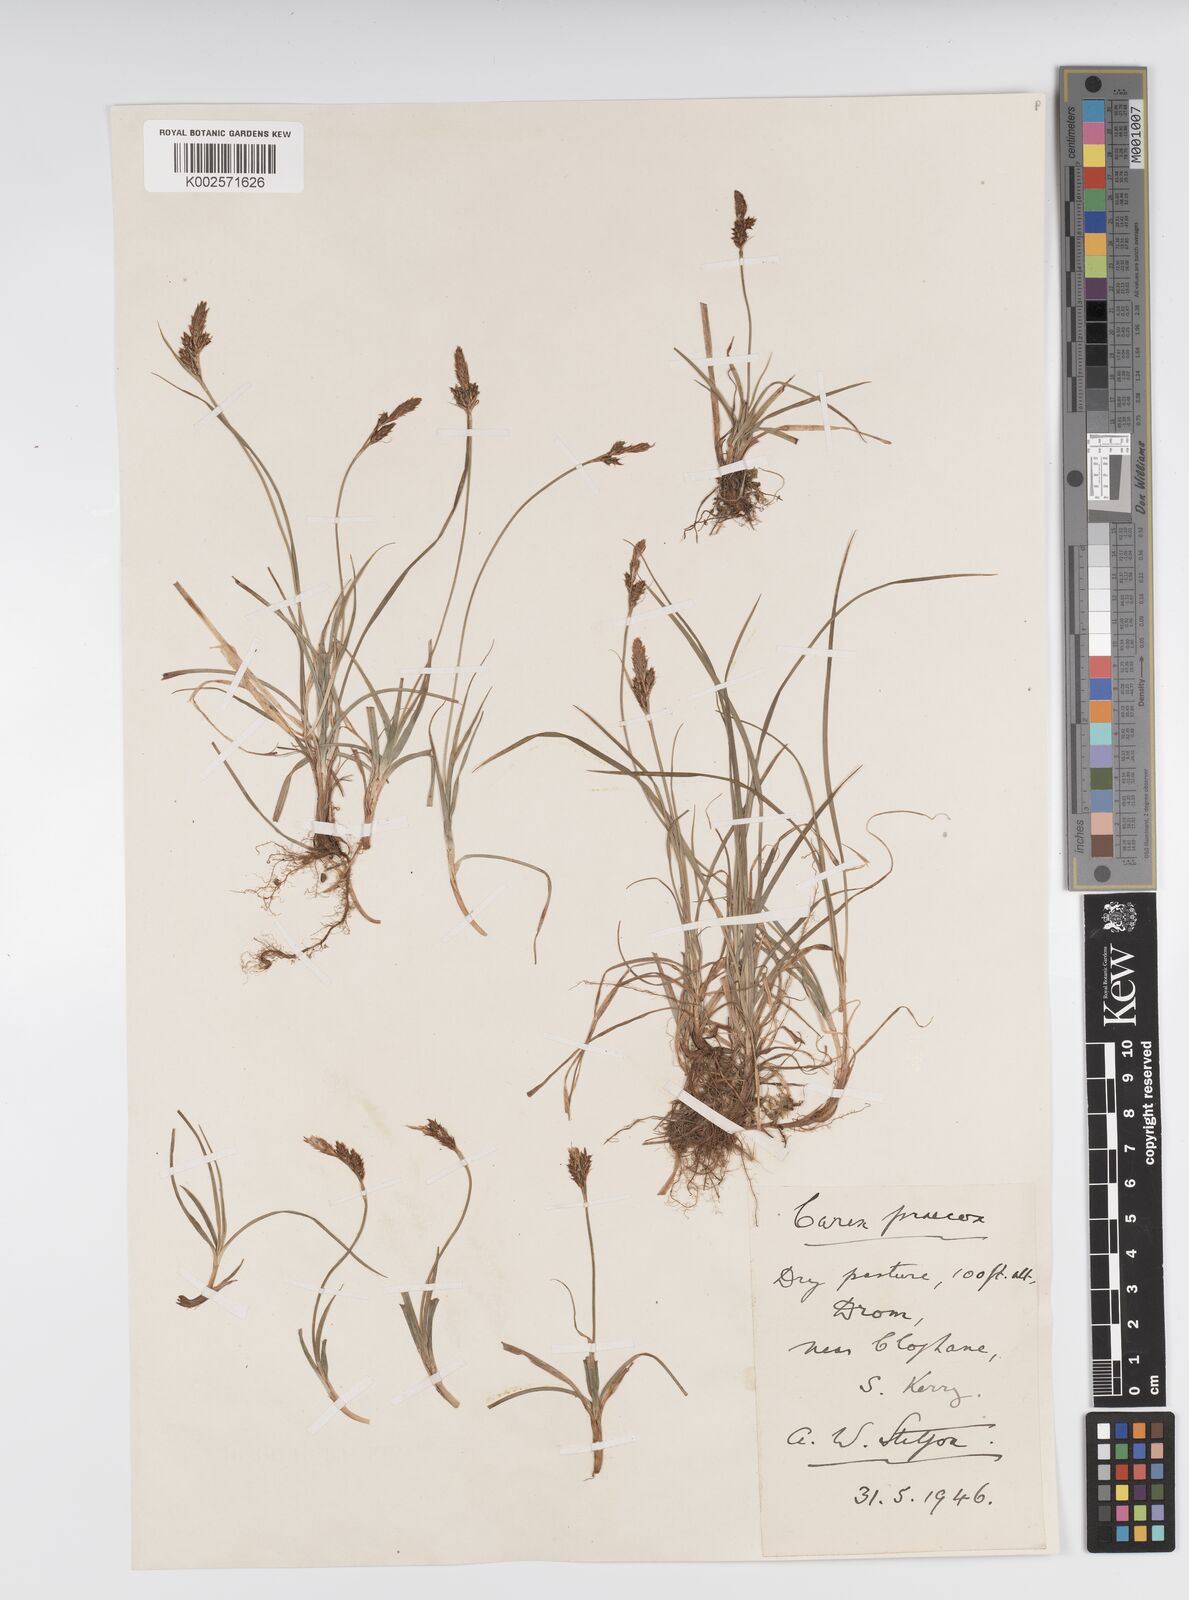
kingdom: Plantae
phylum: Tracheophyta
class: Liliopsida
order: Poales
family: Cyperaceae
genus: Carex
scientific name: Carex caryophyllea
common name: Spring sedge
